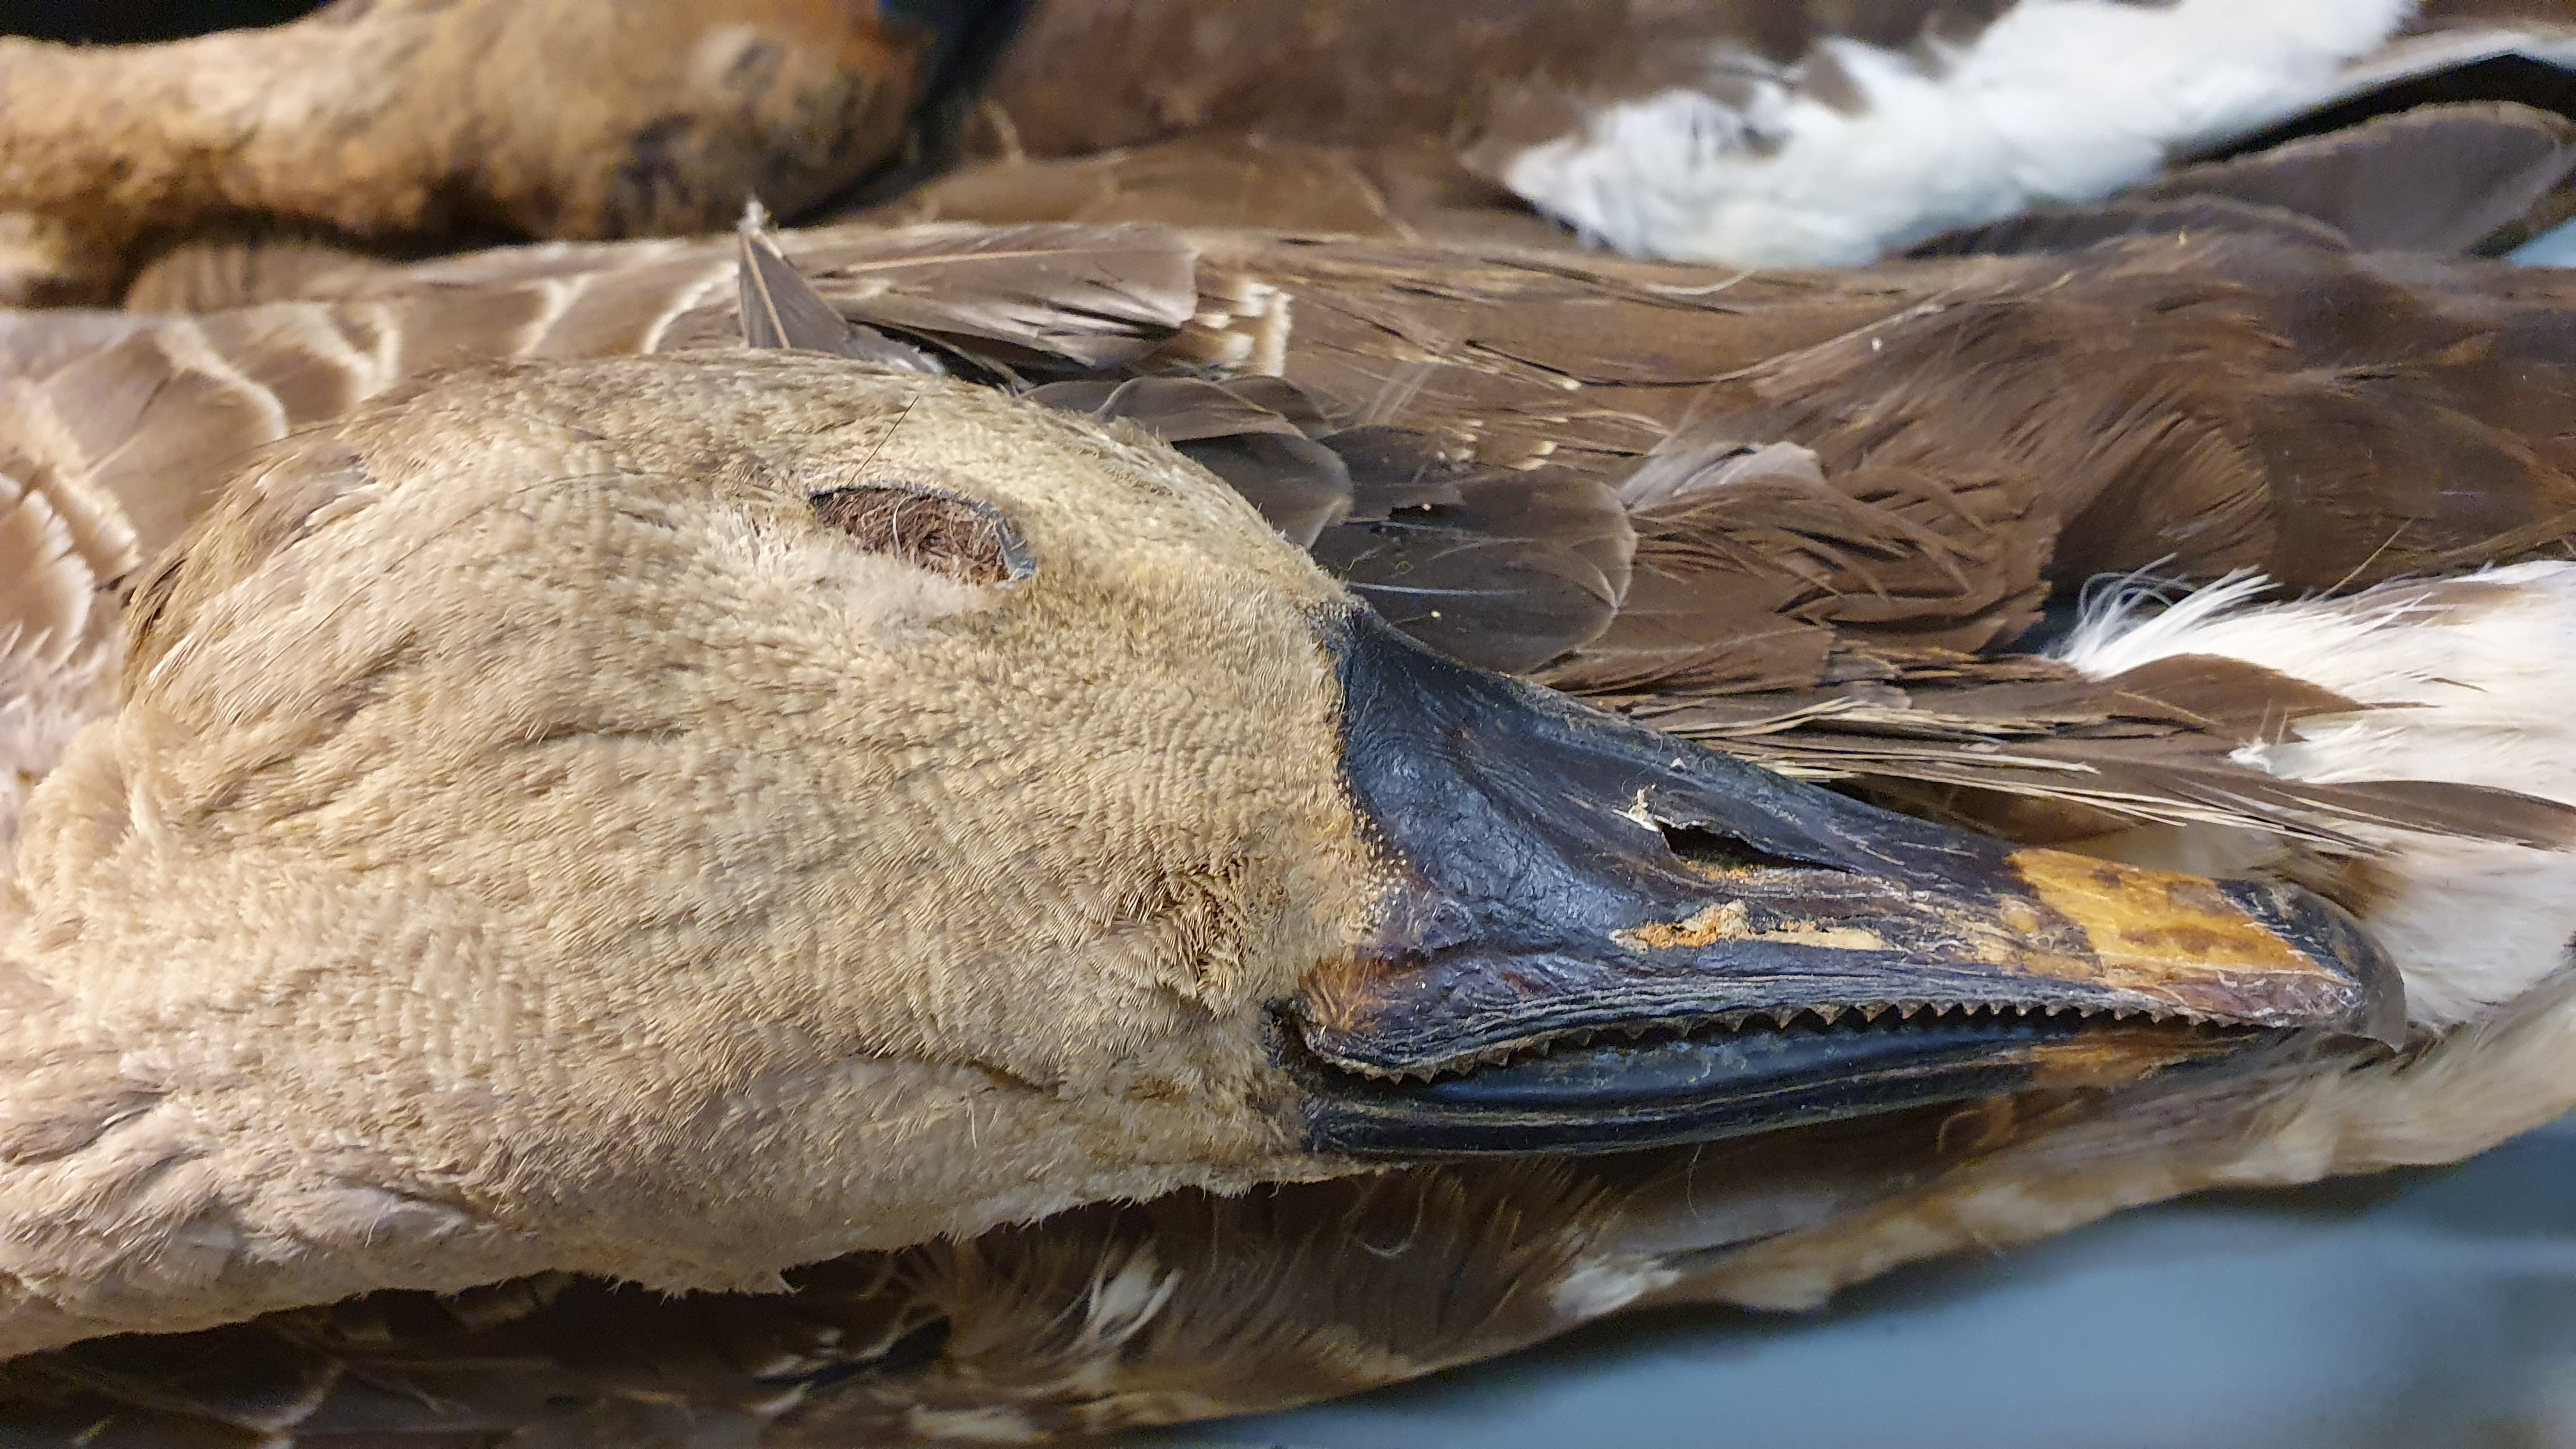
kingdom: Animalia
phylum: Chordata
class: Aves
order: Anseriformes
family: Anatidae
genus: Anser
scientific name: Anser fabalis
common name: Bean goose
